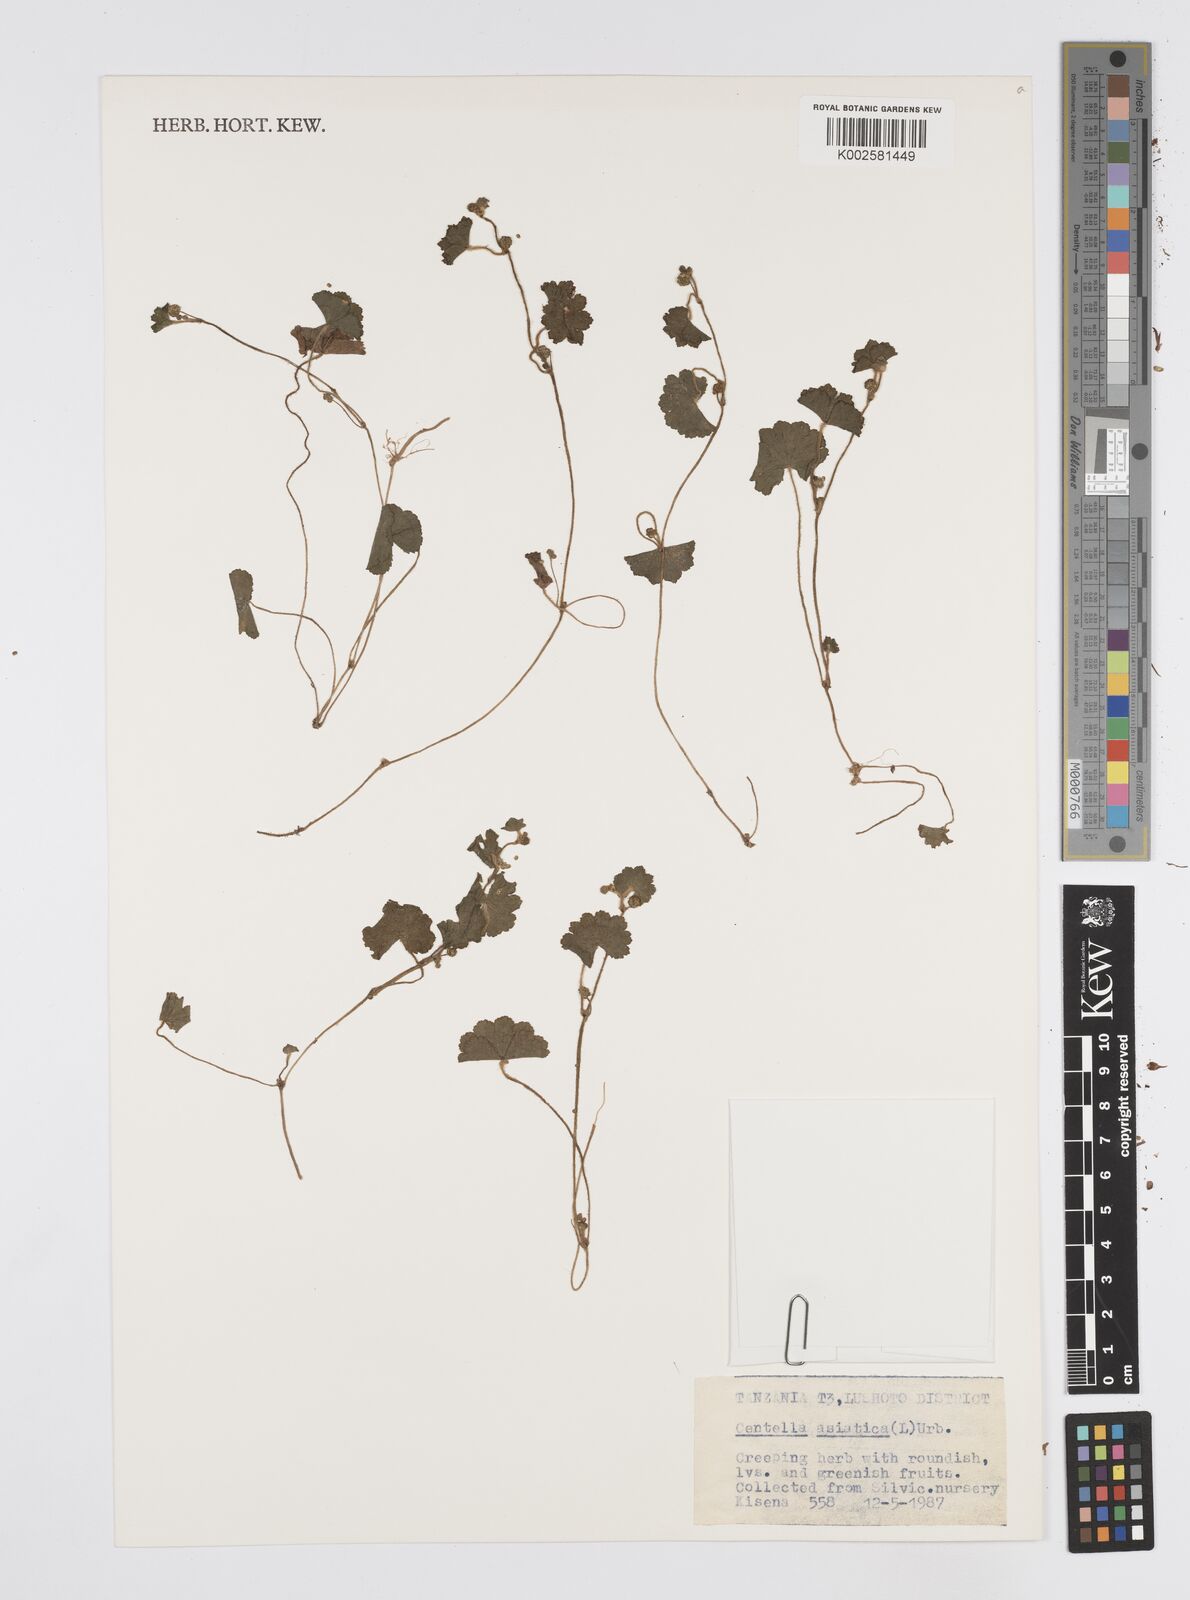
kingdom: Plantae
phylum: Tracheophyta
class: Magnoliopsida
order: Apiales
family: Apiaceae
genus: Centella
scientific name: Centella asiatica
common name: Spadeleaf
